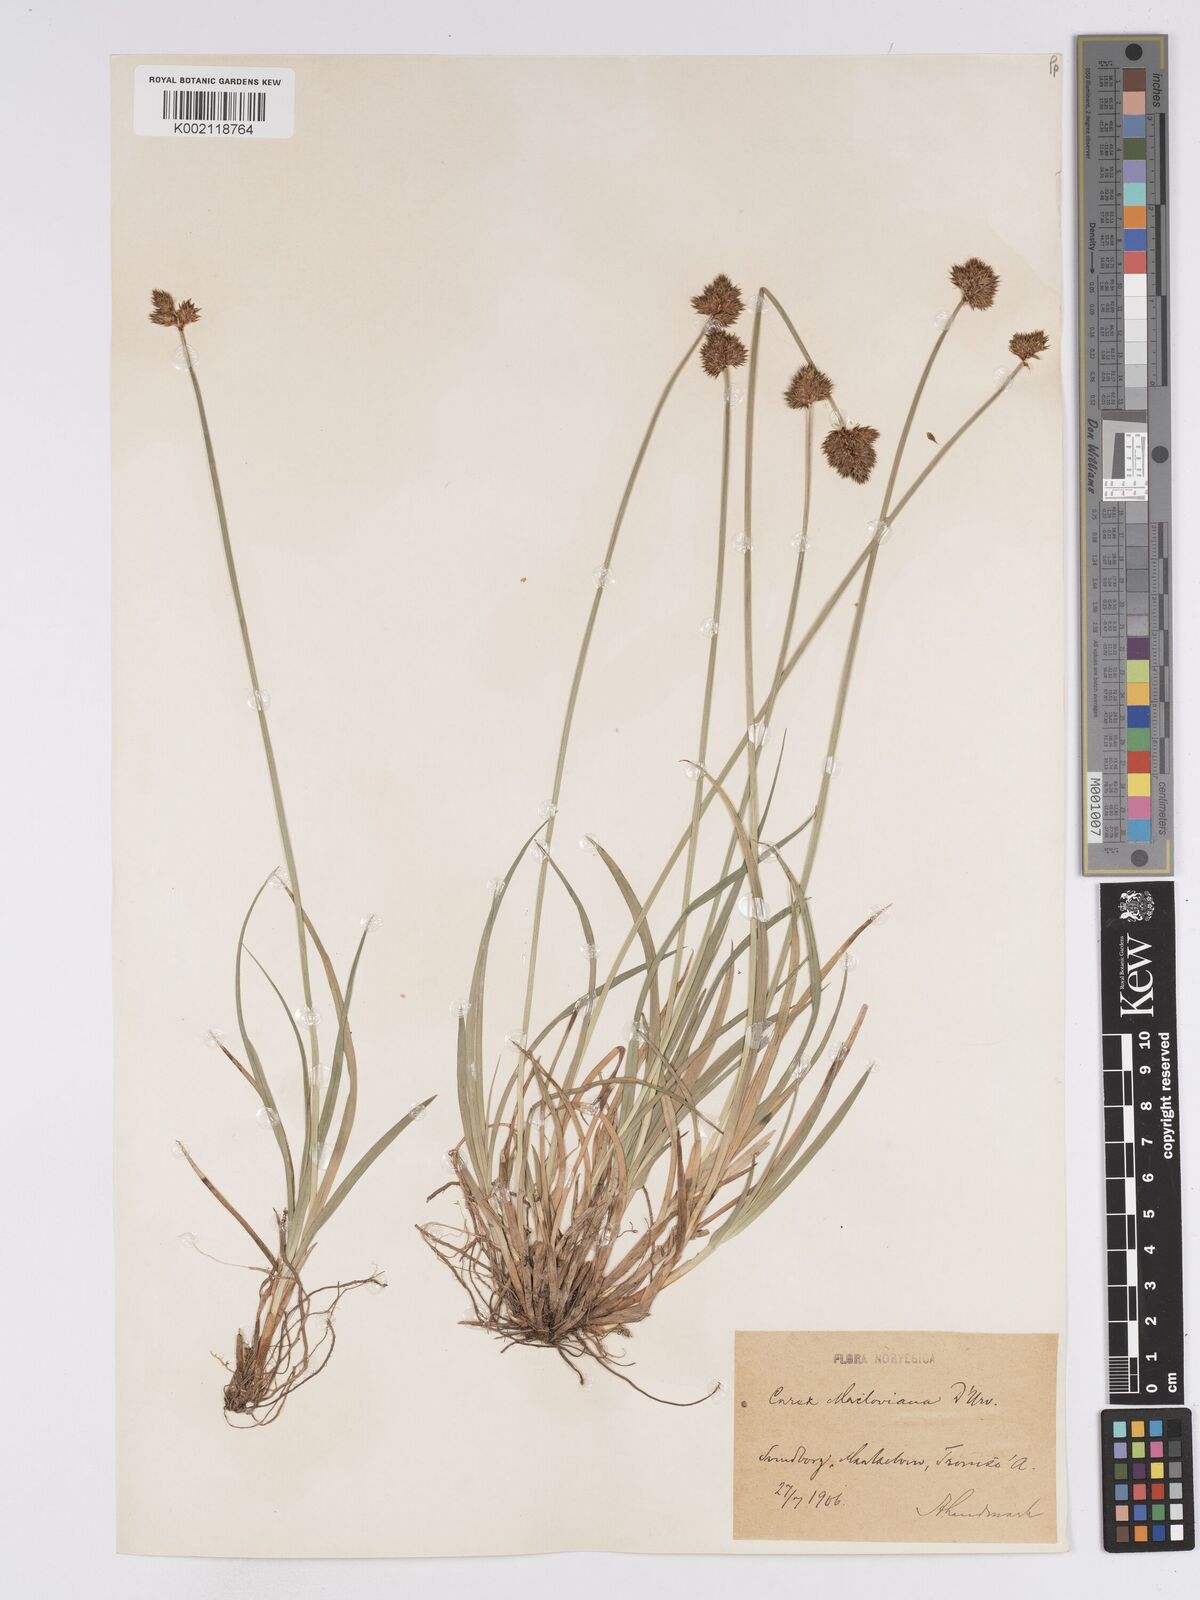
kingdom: Plantae
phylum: Tracheophyta
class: Liliopsida
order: Poales
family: Cyperaceae
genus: Carex
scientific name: Carex macloviana
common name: Falkland island sedge
